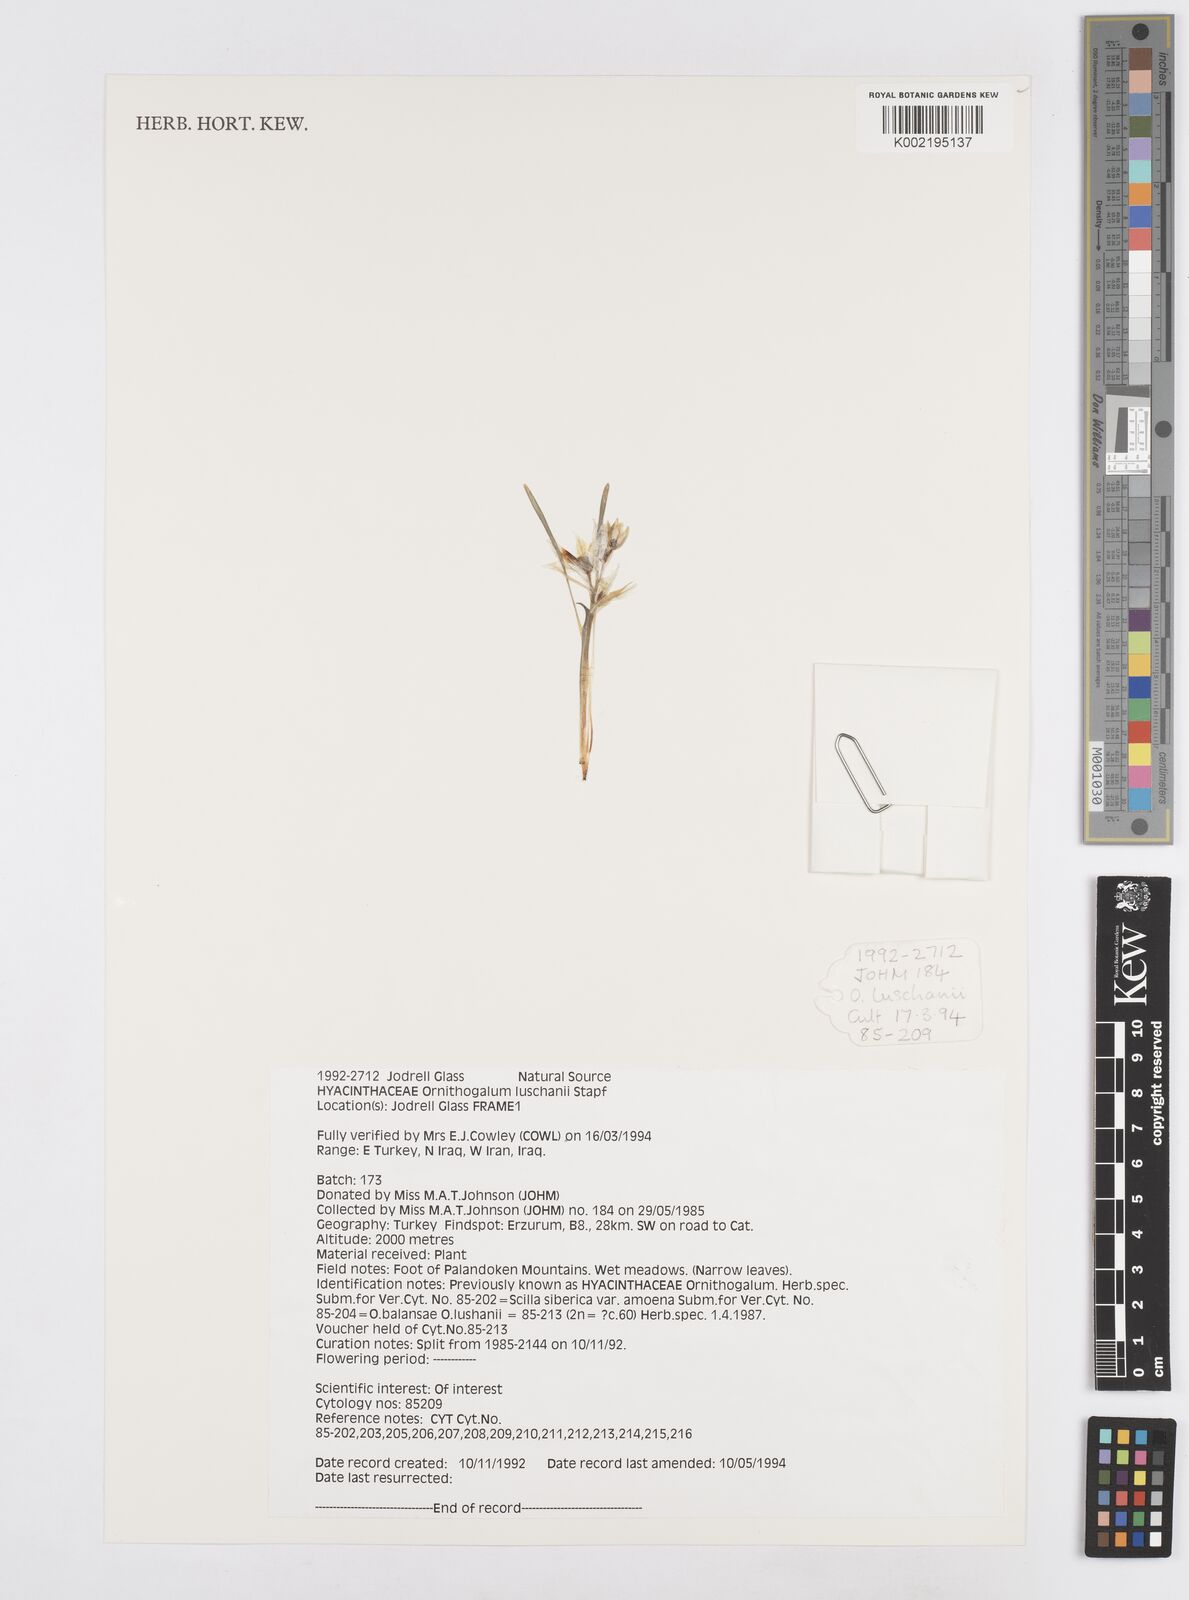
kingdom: Plantae
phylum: Tracheophyta
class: Liliopsida
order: Asparagales
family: Asparagaceae
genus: Ornithogalum
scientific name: Ornithogalum luschanii
